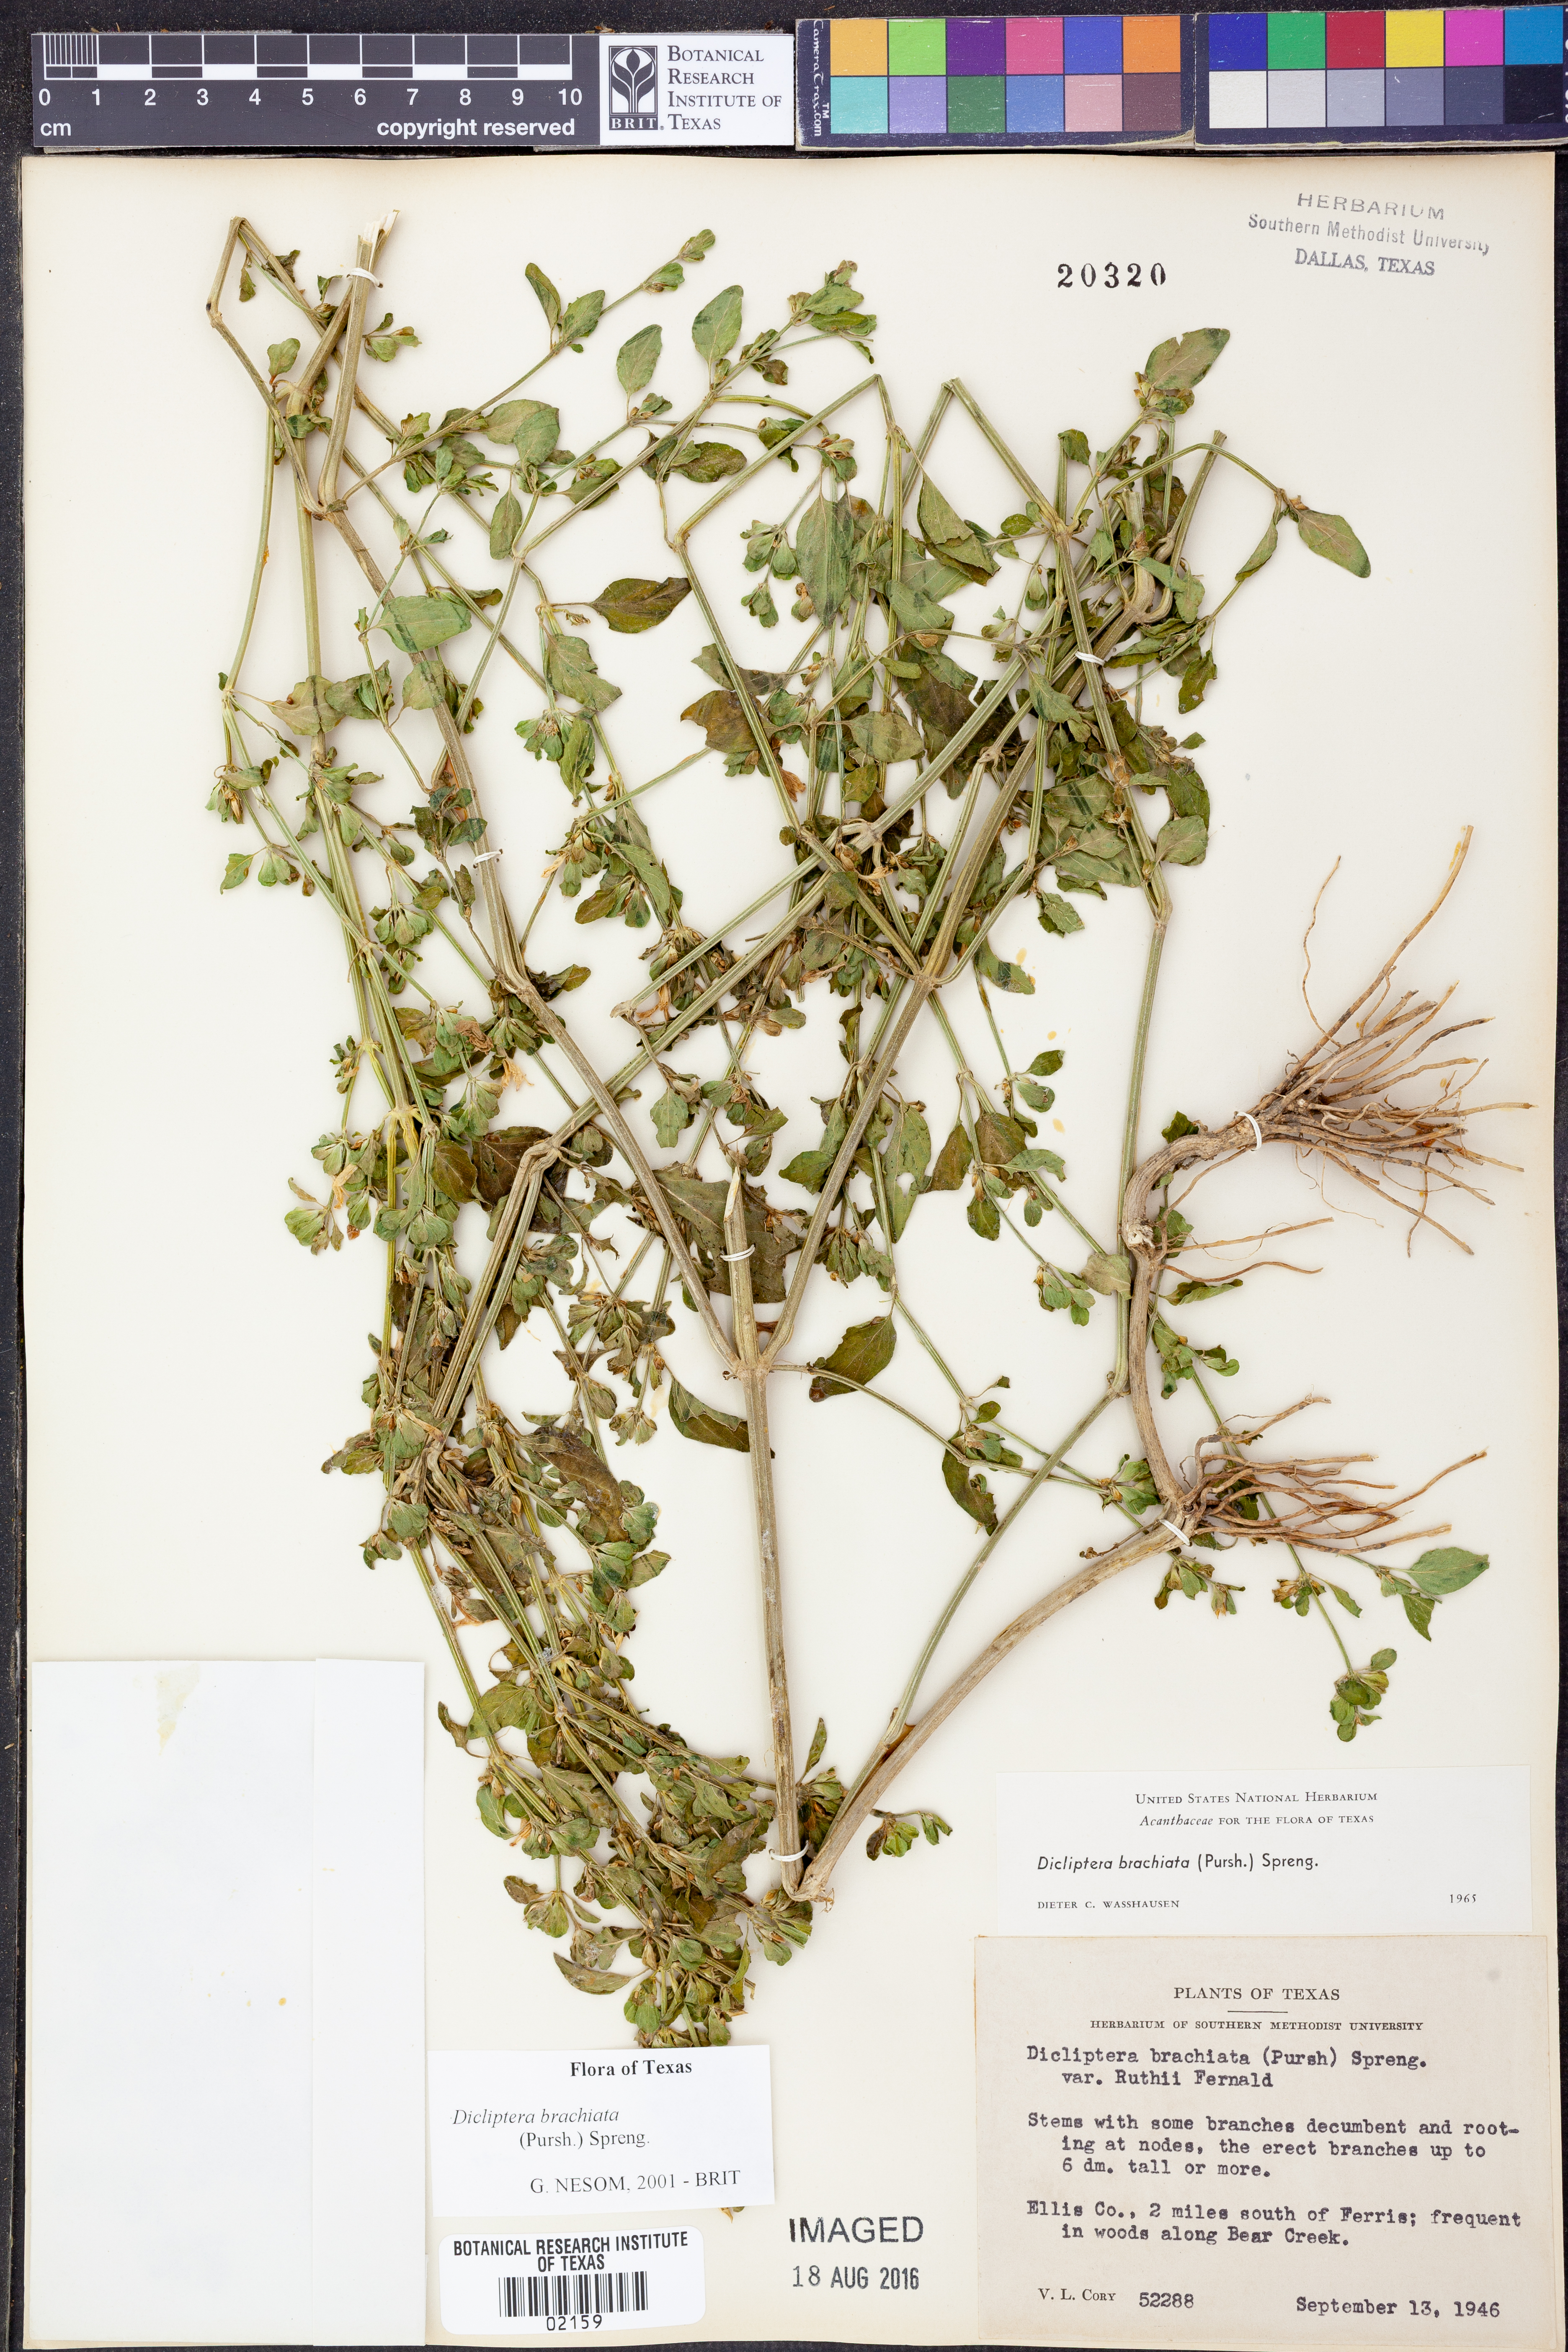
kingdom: Plantae
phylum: Tracheophyta
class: Magnoliopsida
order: Lamiales
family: Acanthaceae
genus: Dicliptera
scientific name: Dicliptera brachiata
